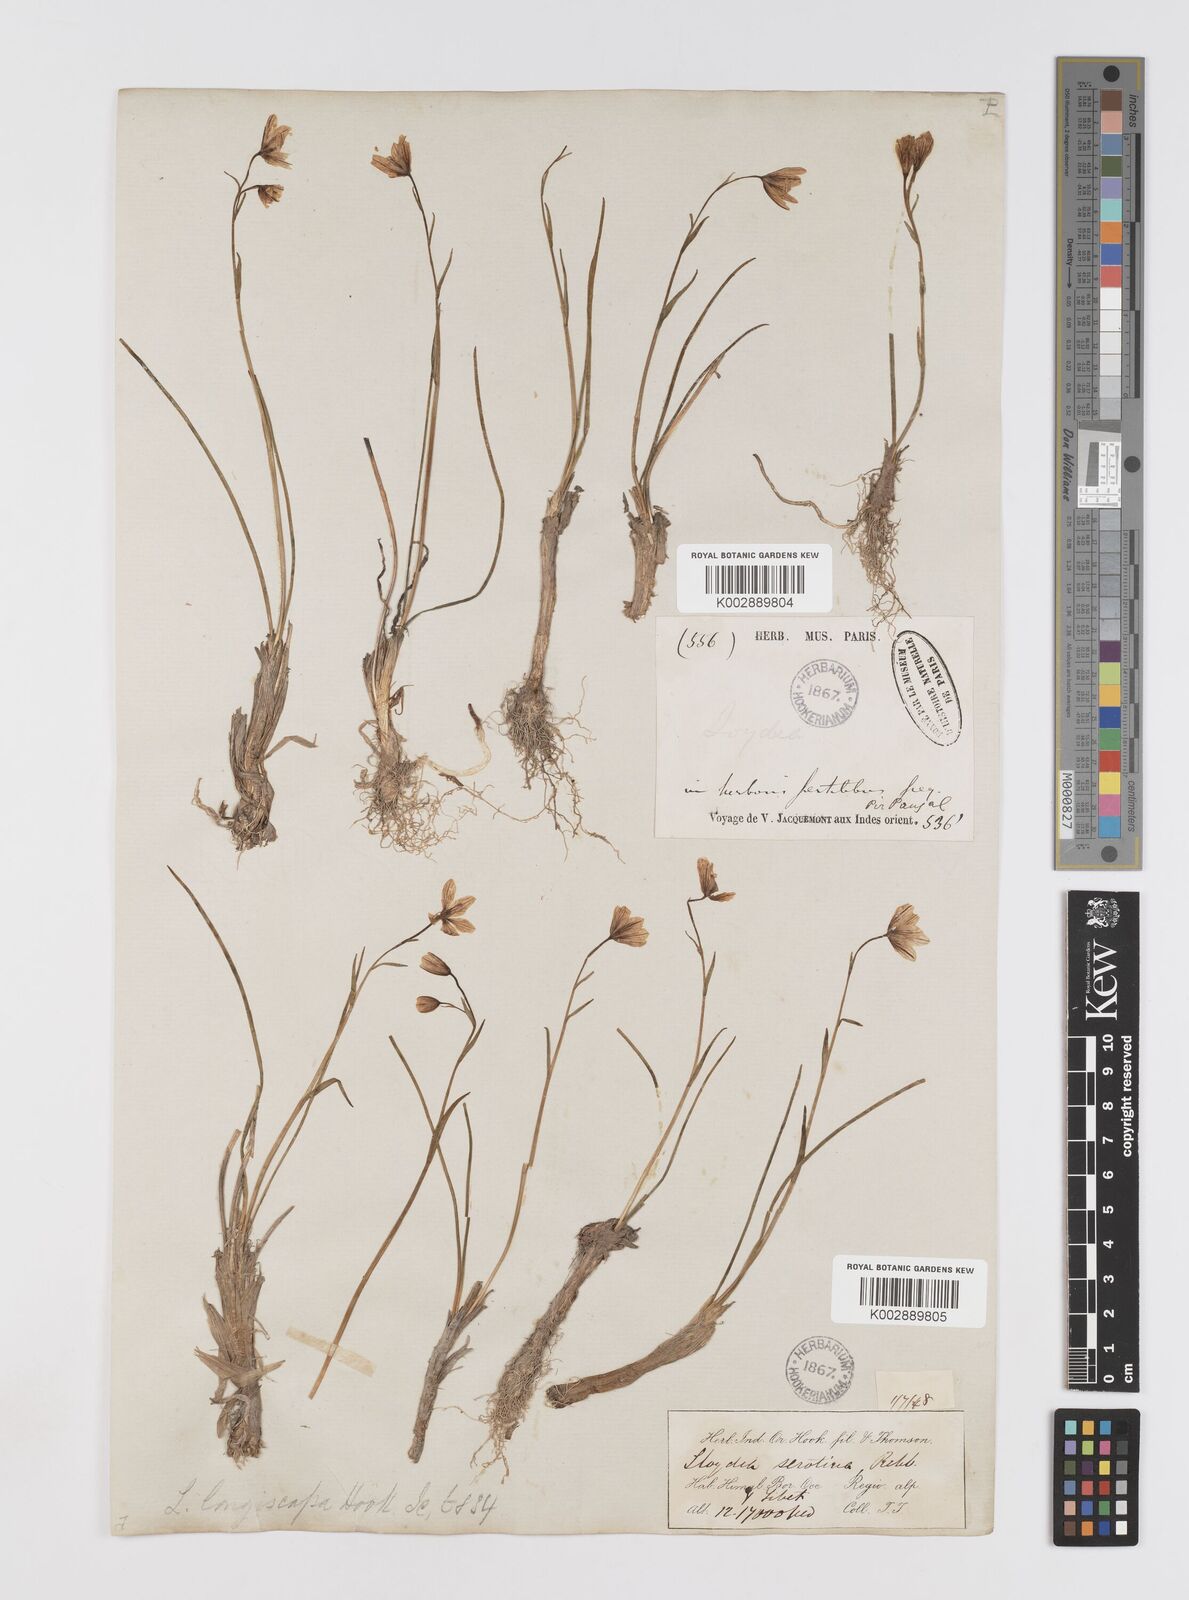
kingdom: Plantae
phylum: Tracheophyta
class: Liliopsida
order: Liliales
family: Liliaceae
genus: Gagea
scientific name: Gagea serotina
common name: Snowdon lily
